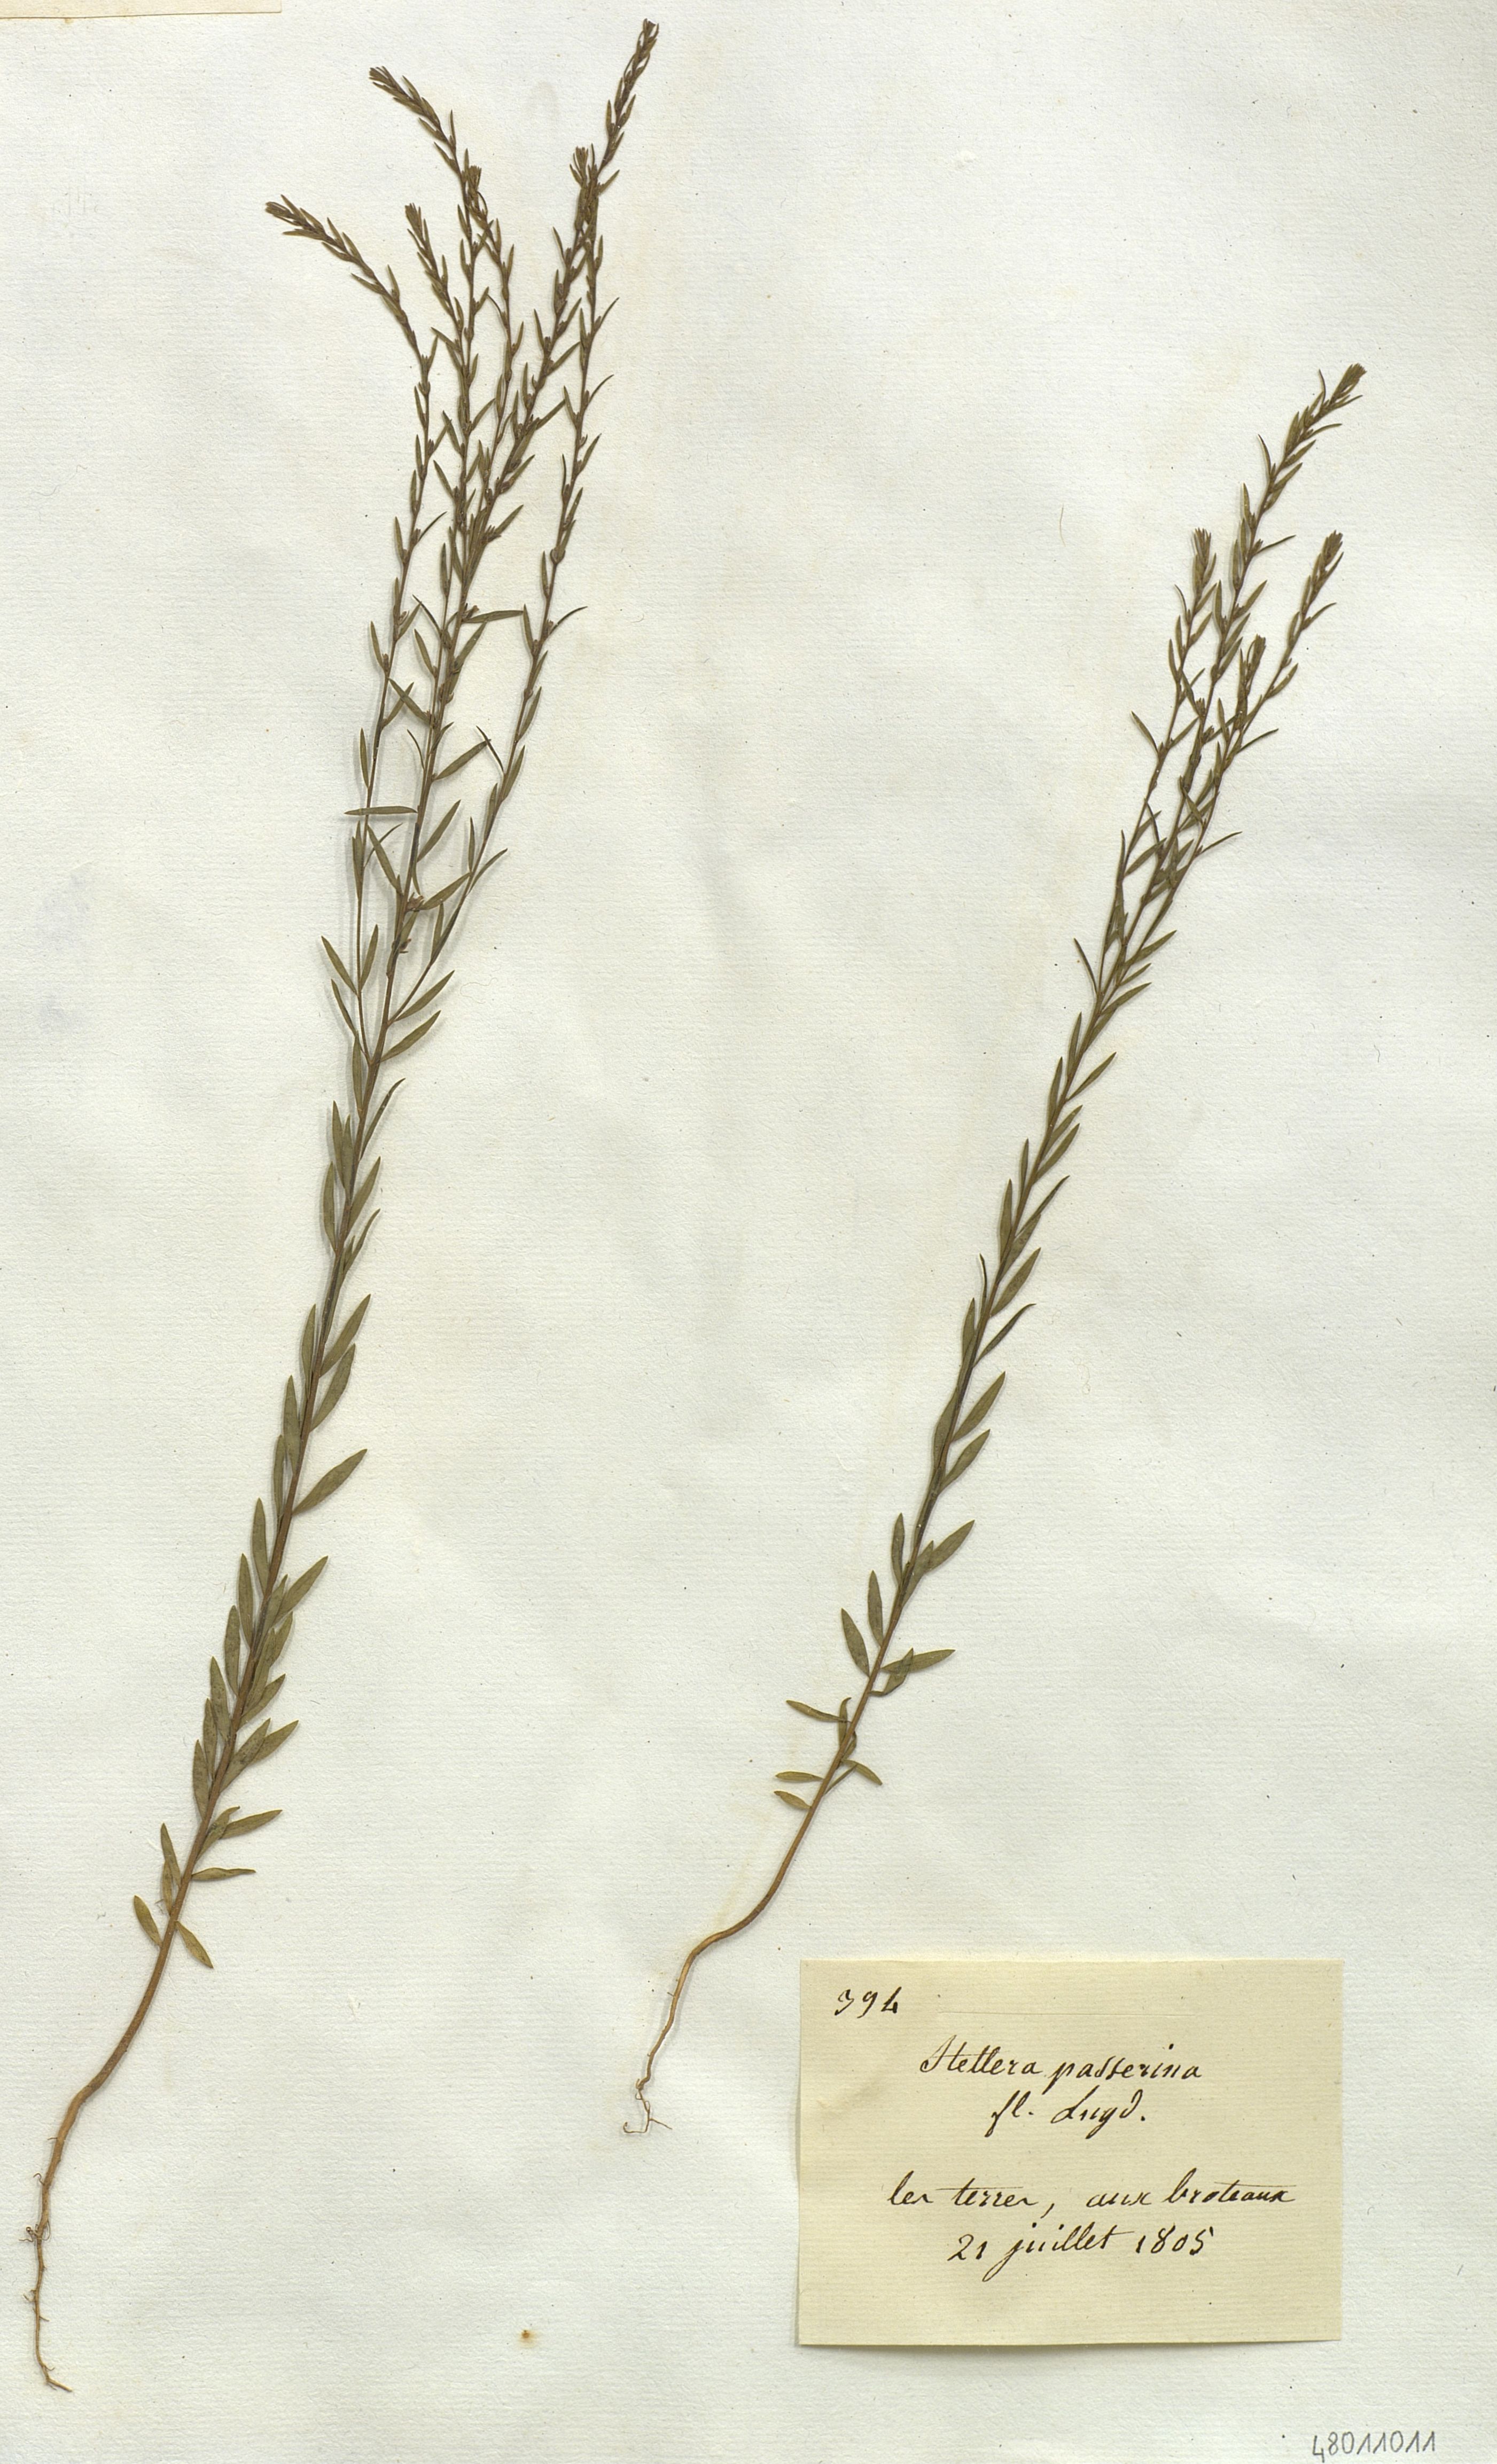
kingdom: Plantae
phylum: Tracheophyta
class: Magnoliopsida
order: Malvales
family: Thymelaeaceae
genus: Thymelaea
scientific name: Thymelaea passerina
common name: Annual thymelaea
